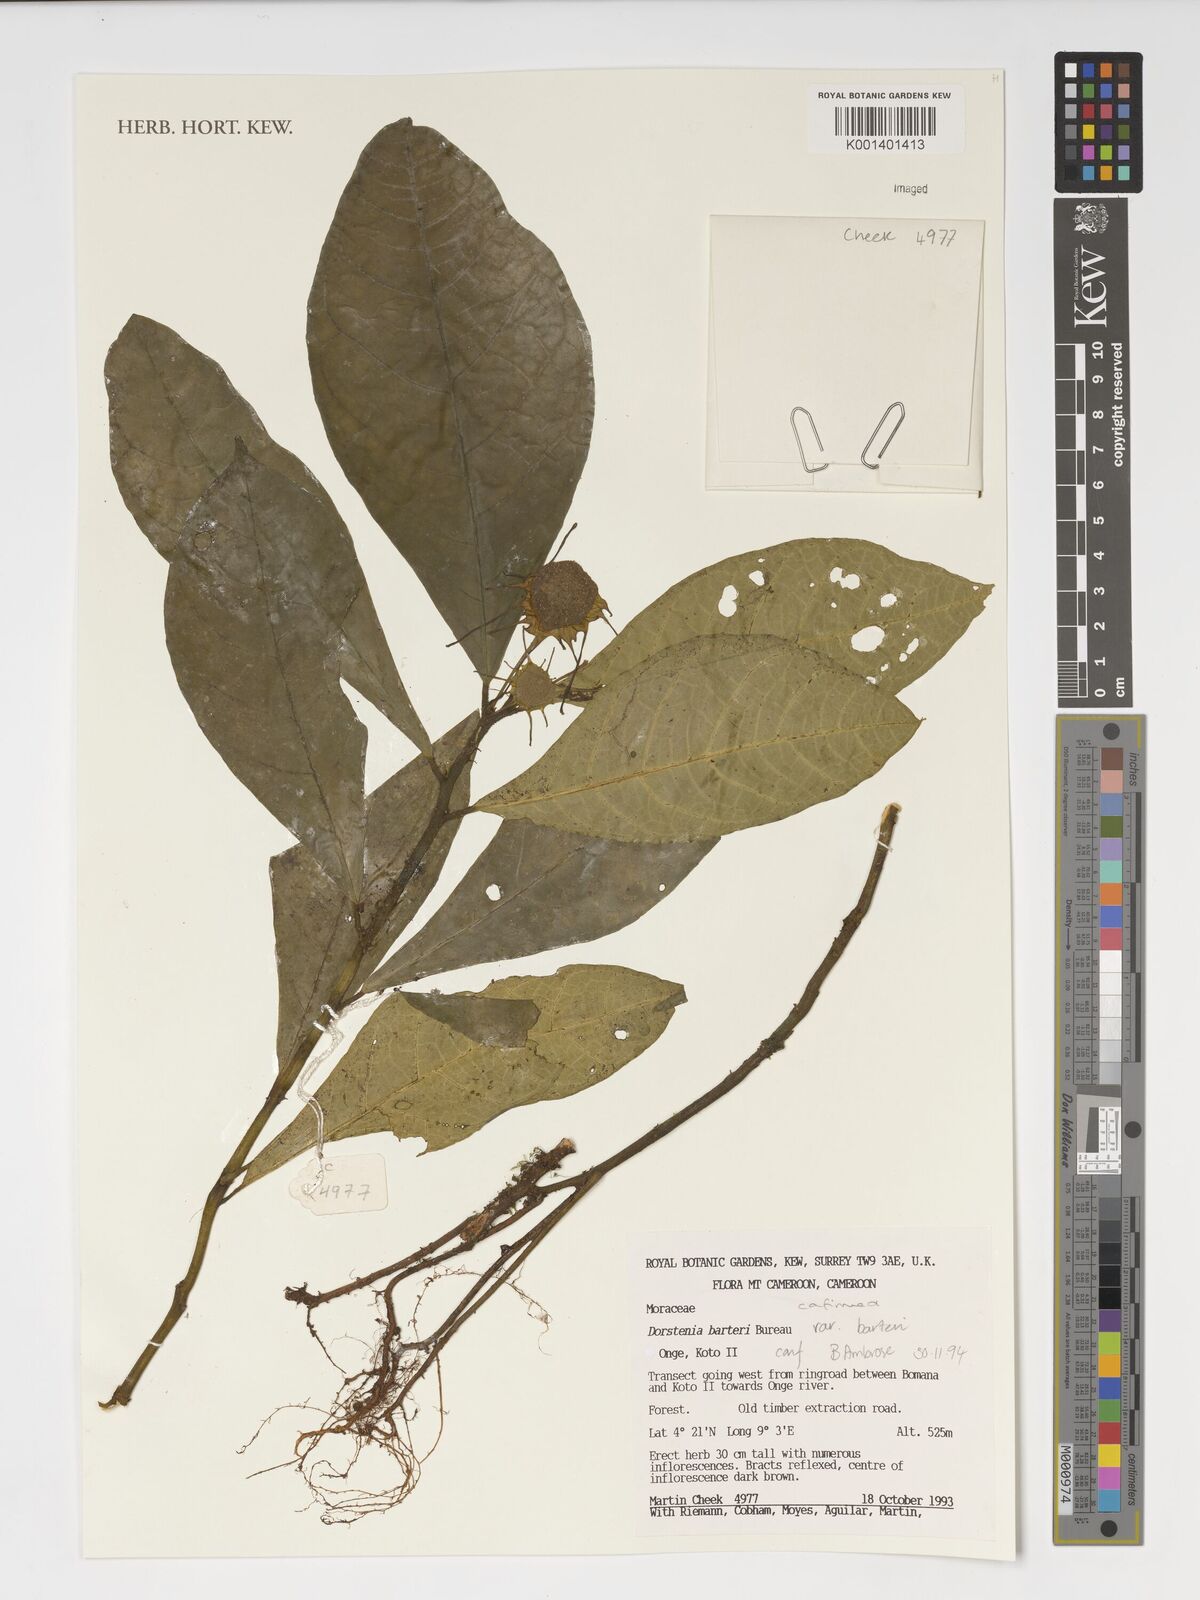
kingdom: Plantae
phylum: Tracheophyta
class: Magnoliopsida
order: Rosales
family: Moraceae
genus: Dorstenia
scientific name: Dorstenia barteri
